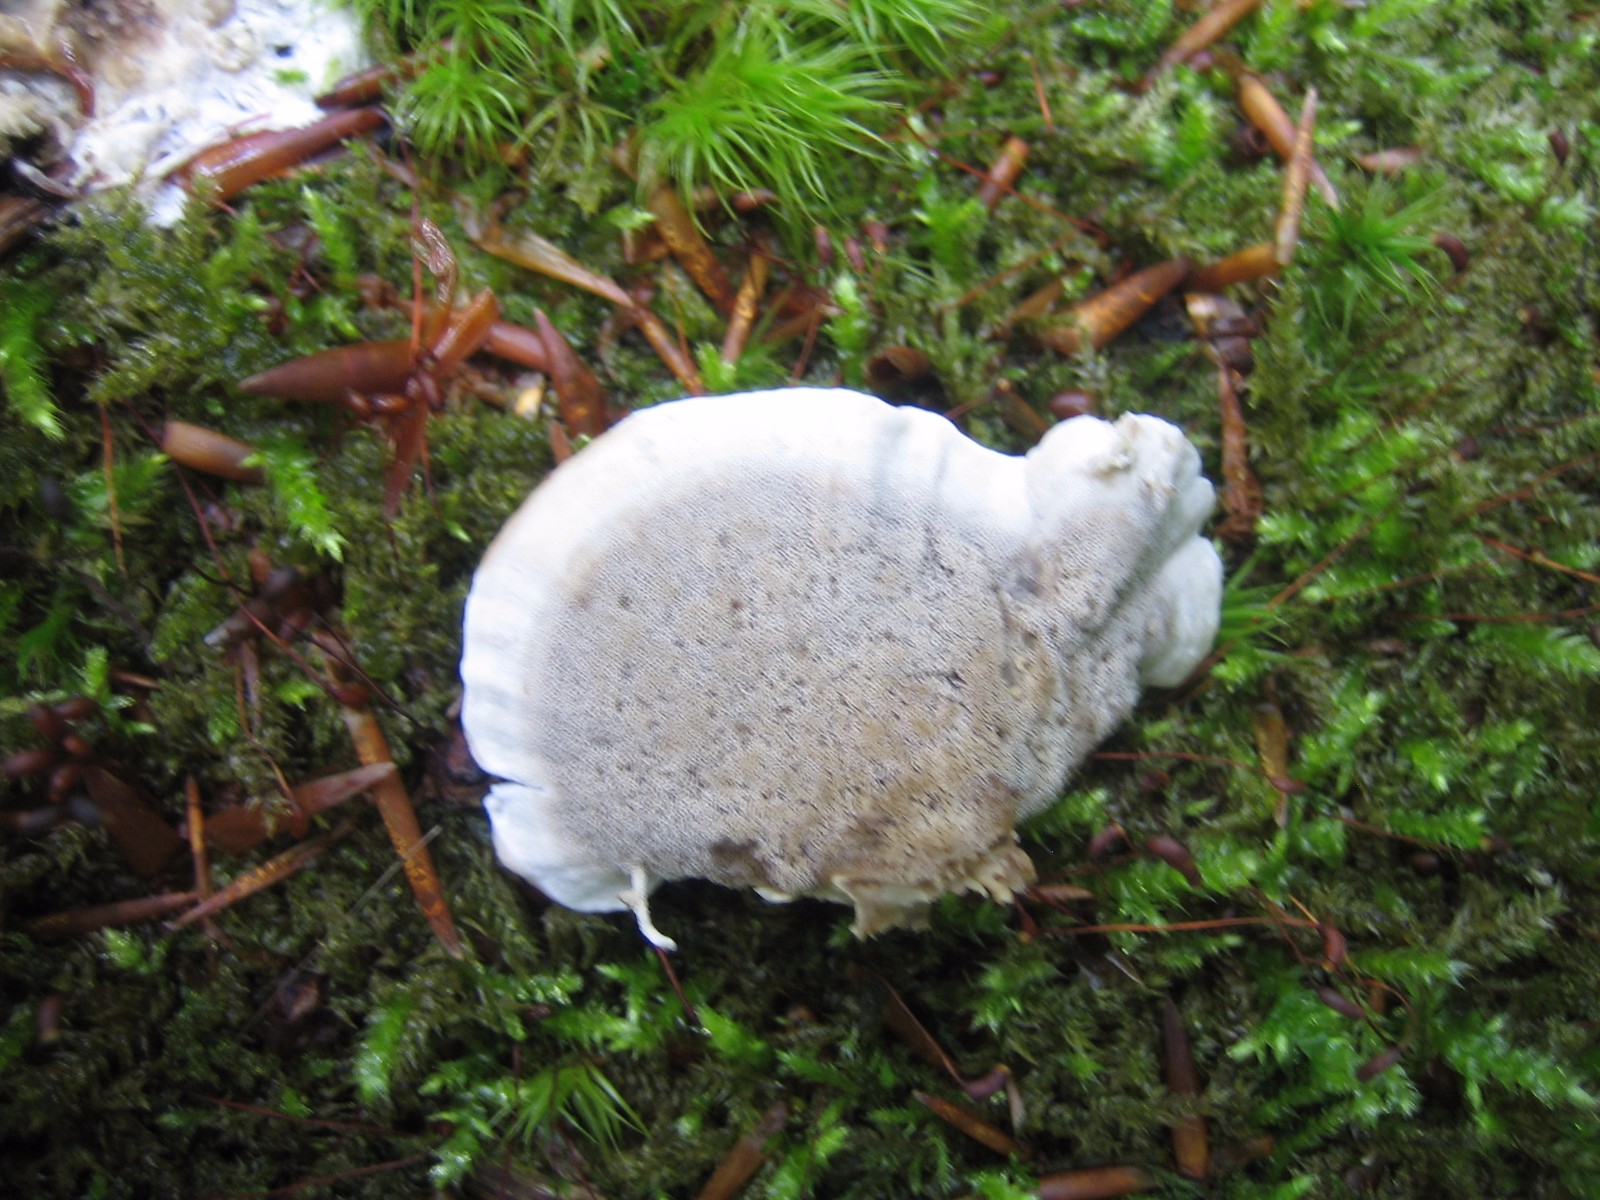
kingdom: Fungi
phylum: Basidiomycota
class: Agaricomycetes
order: Polyporales
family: Phanerochaetaceae
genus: Bjerkandera
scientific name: Bjerkandera adusta
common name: sveden sodporesvamp
